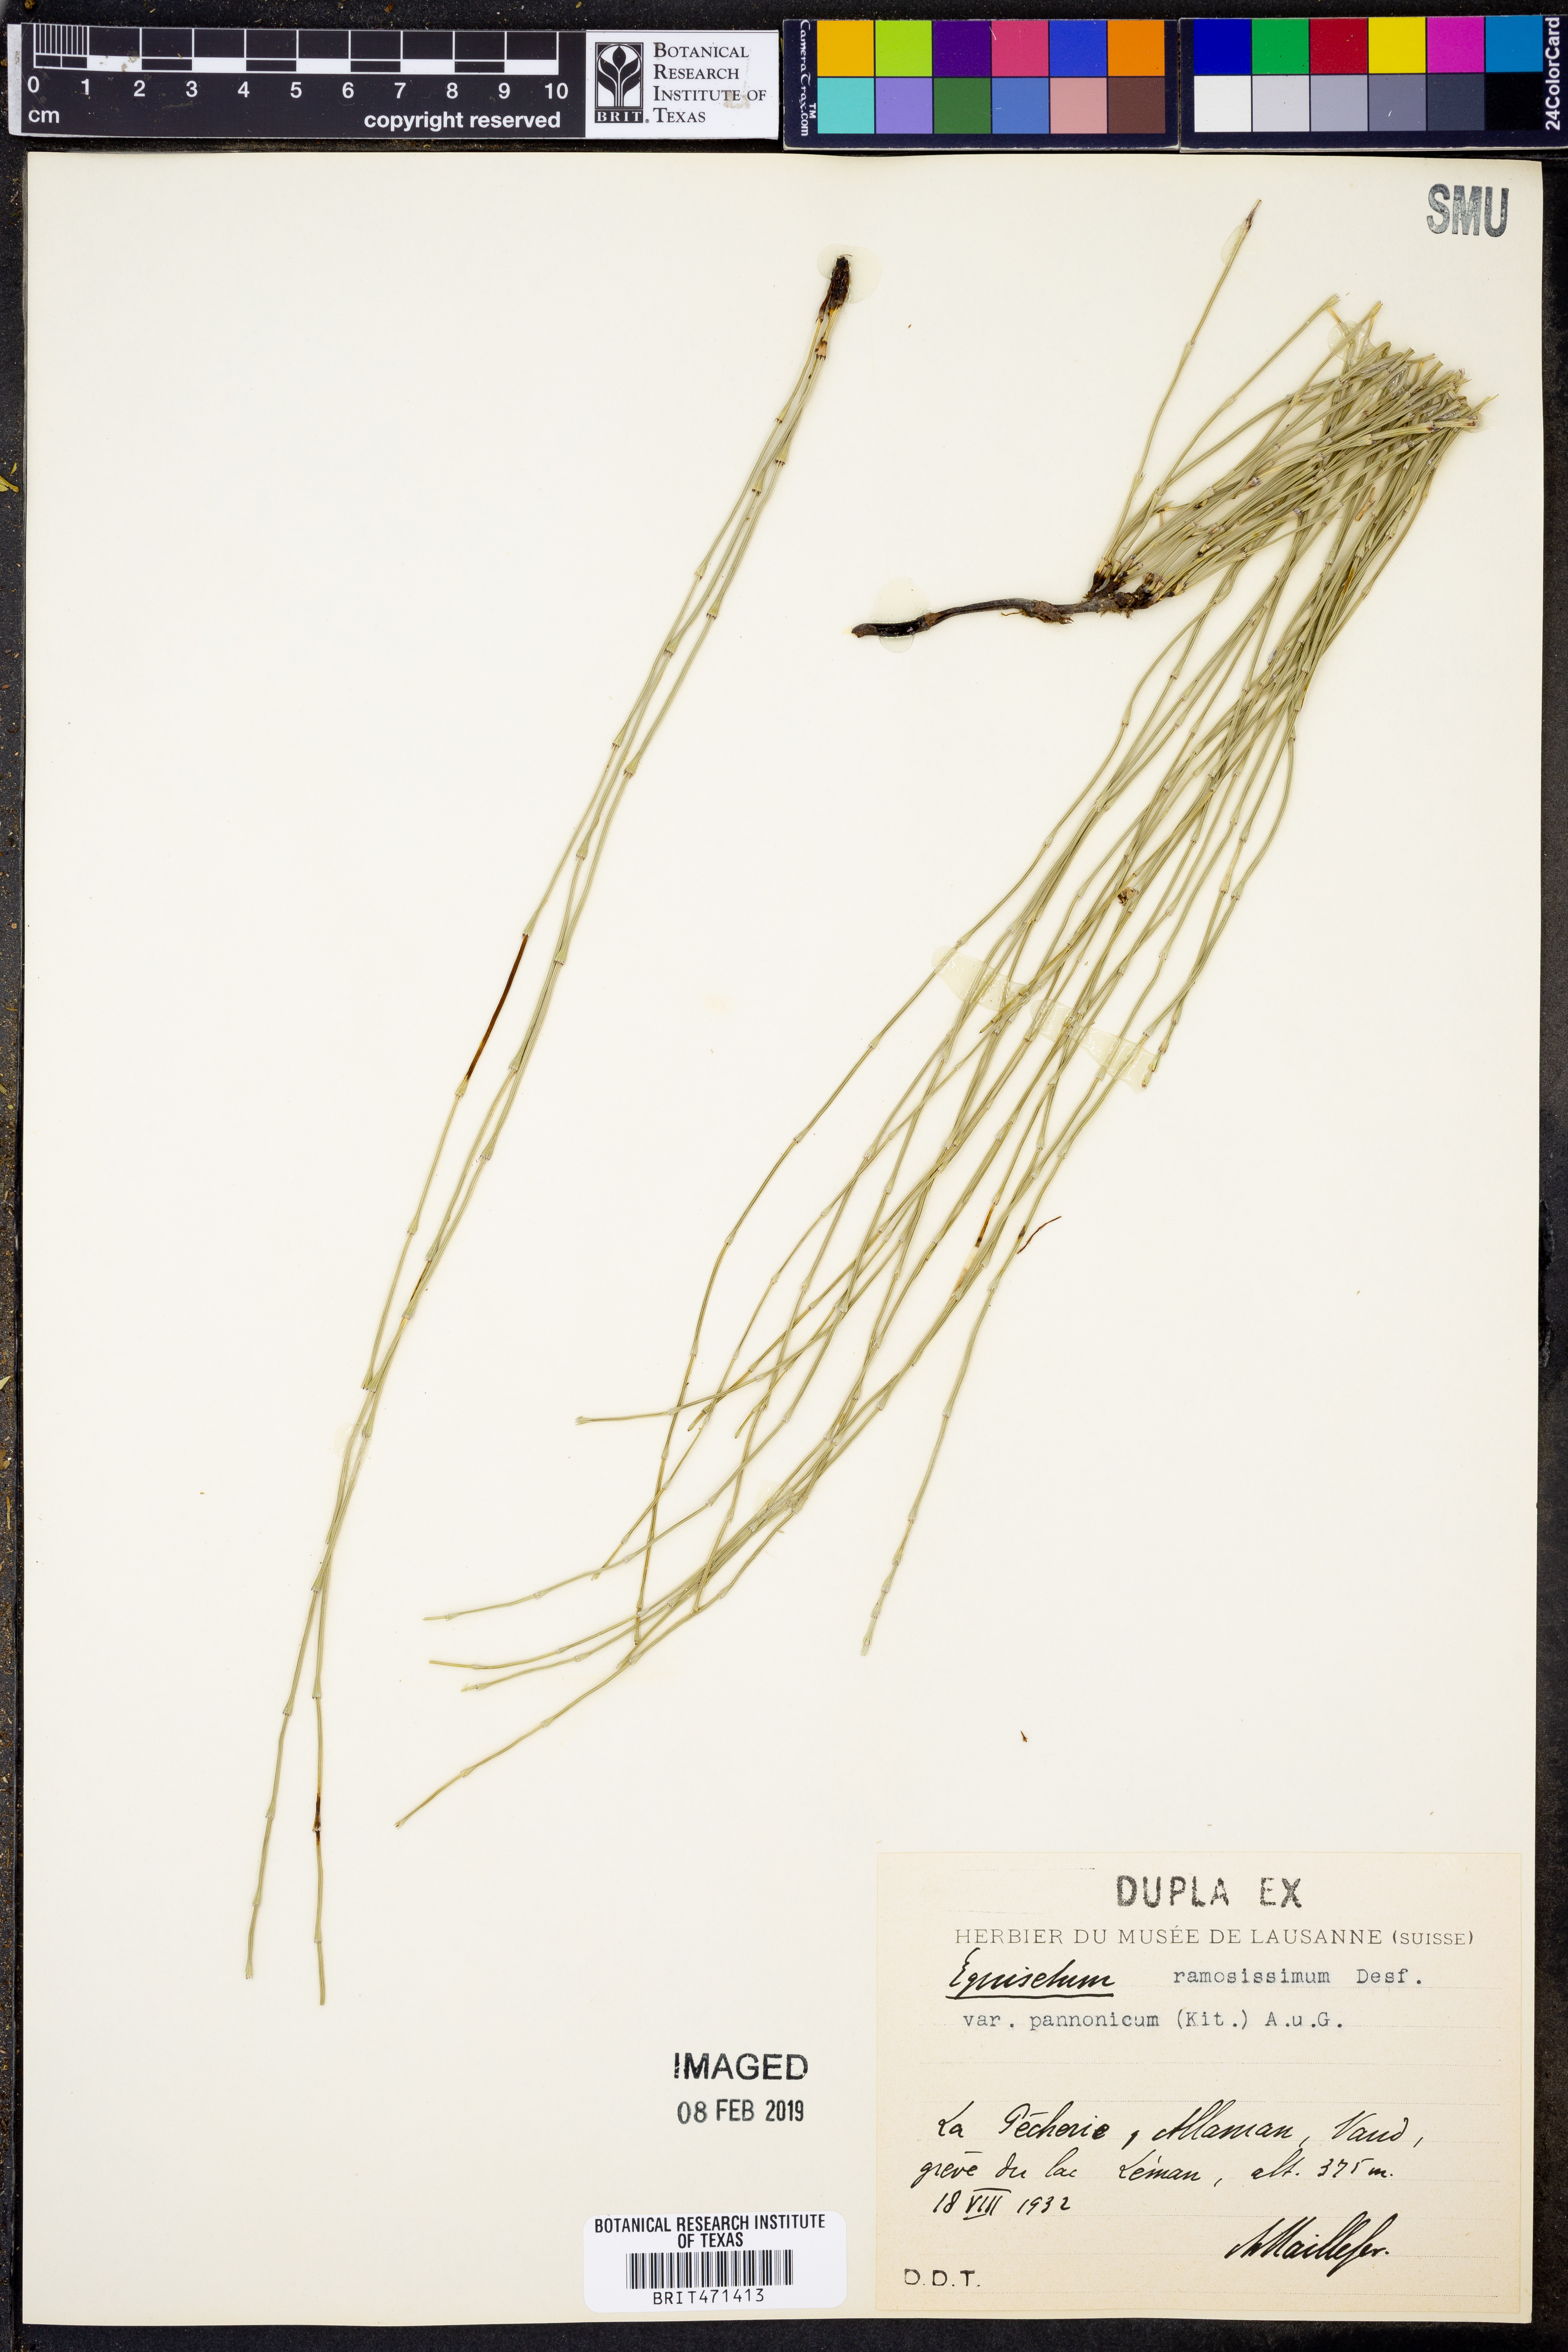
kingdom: Plantae
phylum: Tracheophyta
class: Polypodiopsida
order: Equisetales
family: Equisetaceae
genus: Equisetum
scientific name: Equisetum ramosissimum
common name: Branched horsetail
